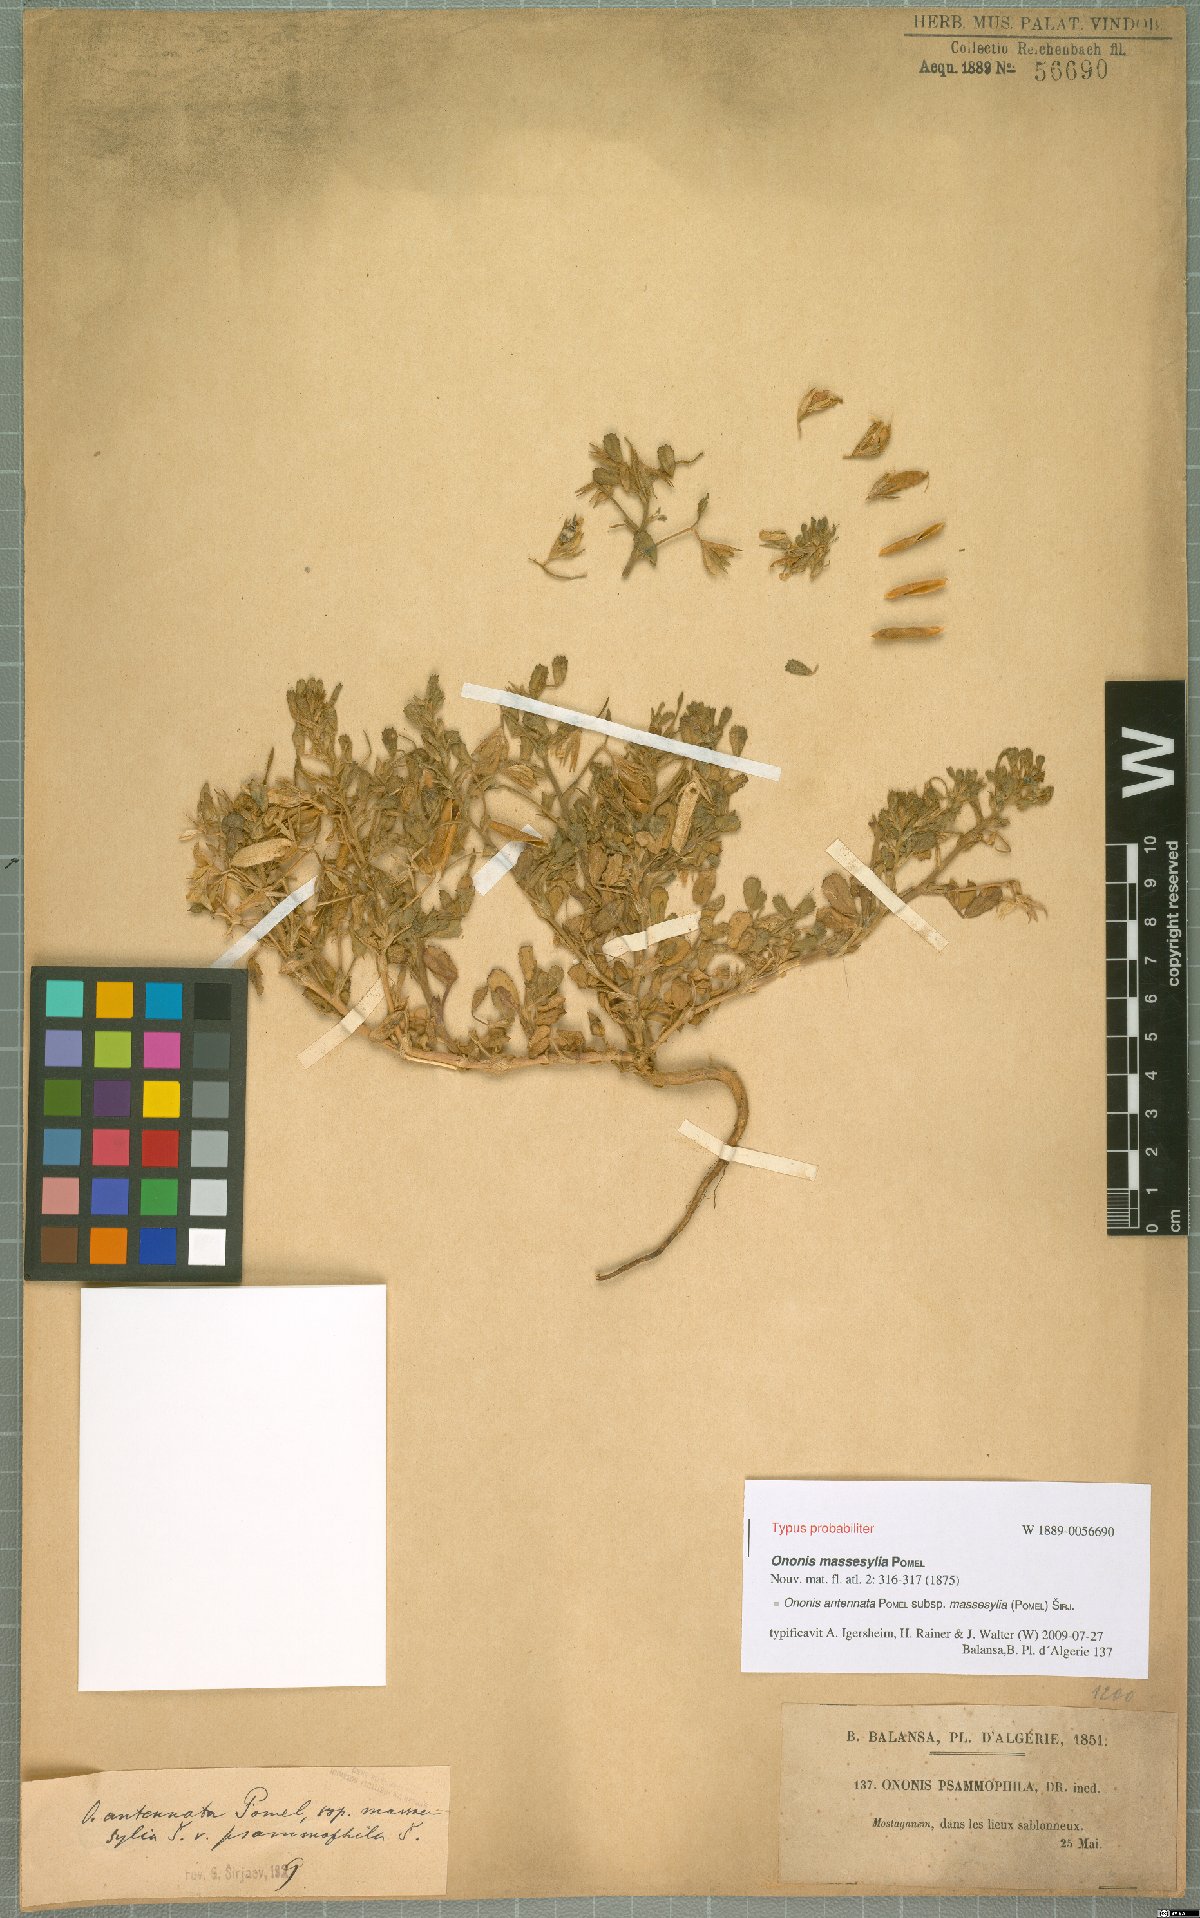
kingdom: Plantae
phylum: Tracheophyta
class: Magnoliopsida
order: Fabales
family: Fabaceae
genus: Ononis
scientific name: Ononis antennata
